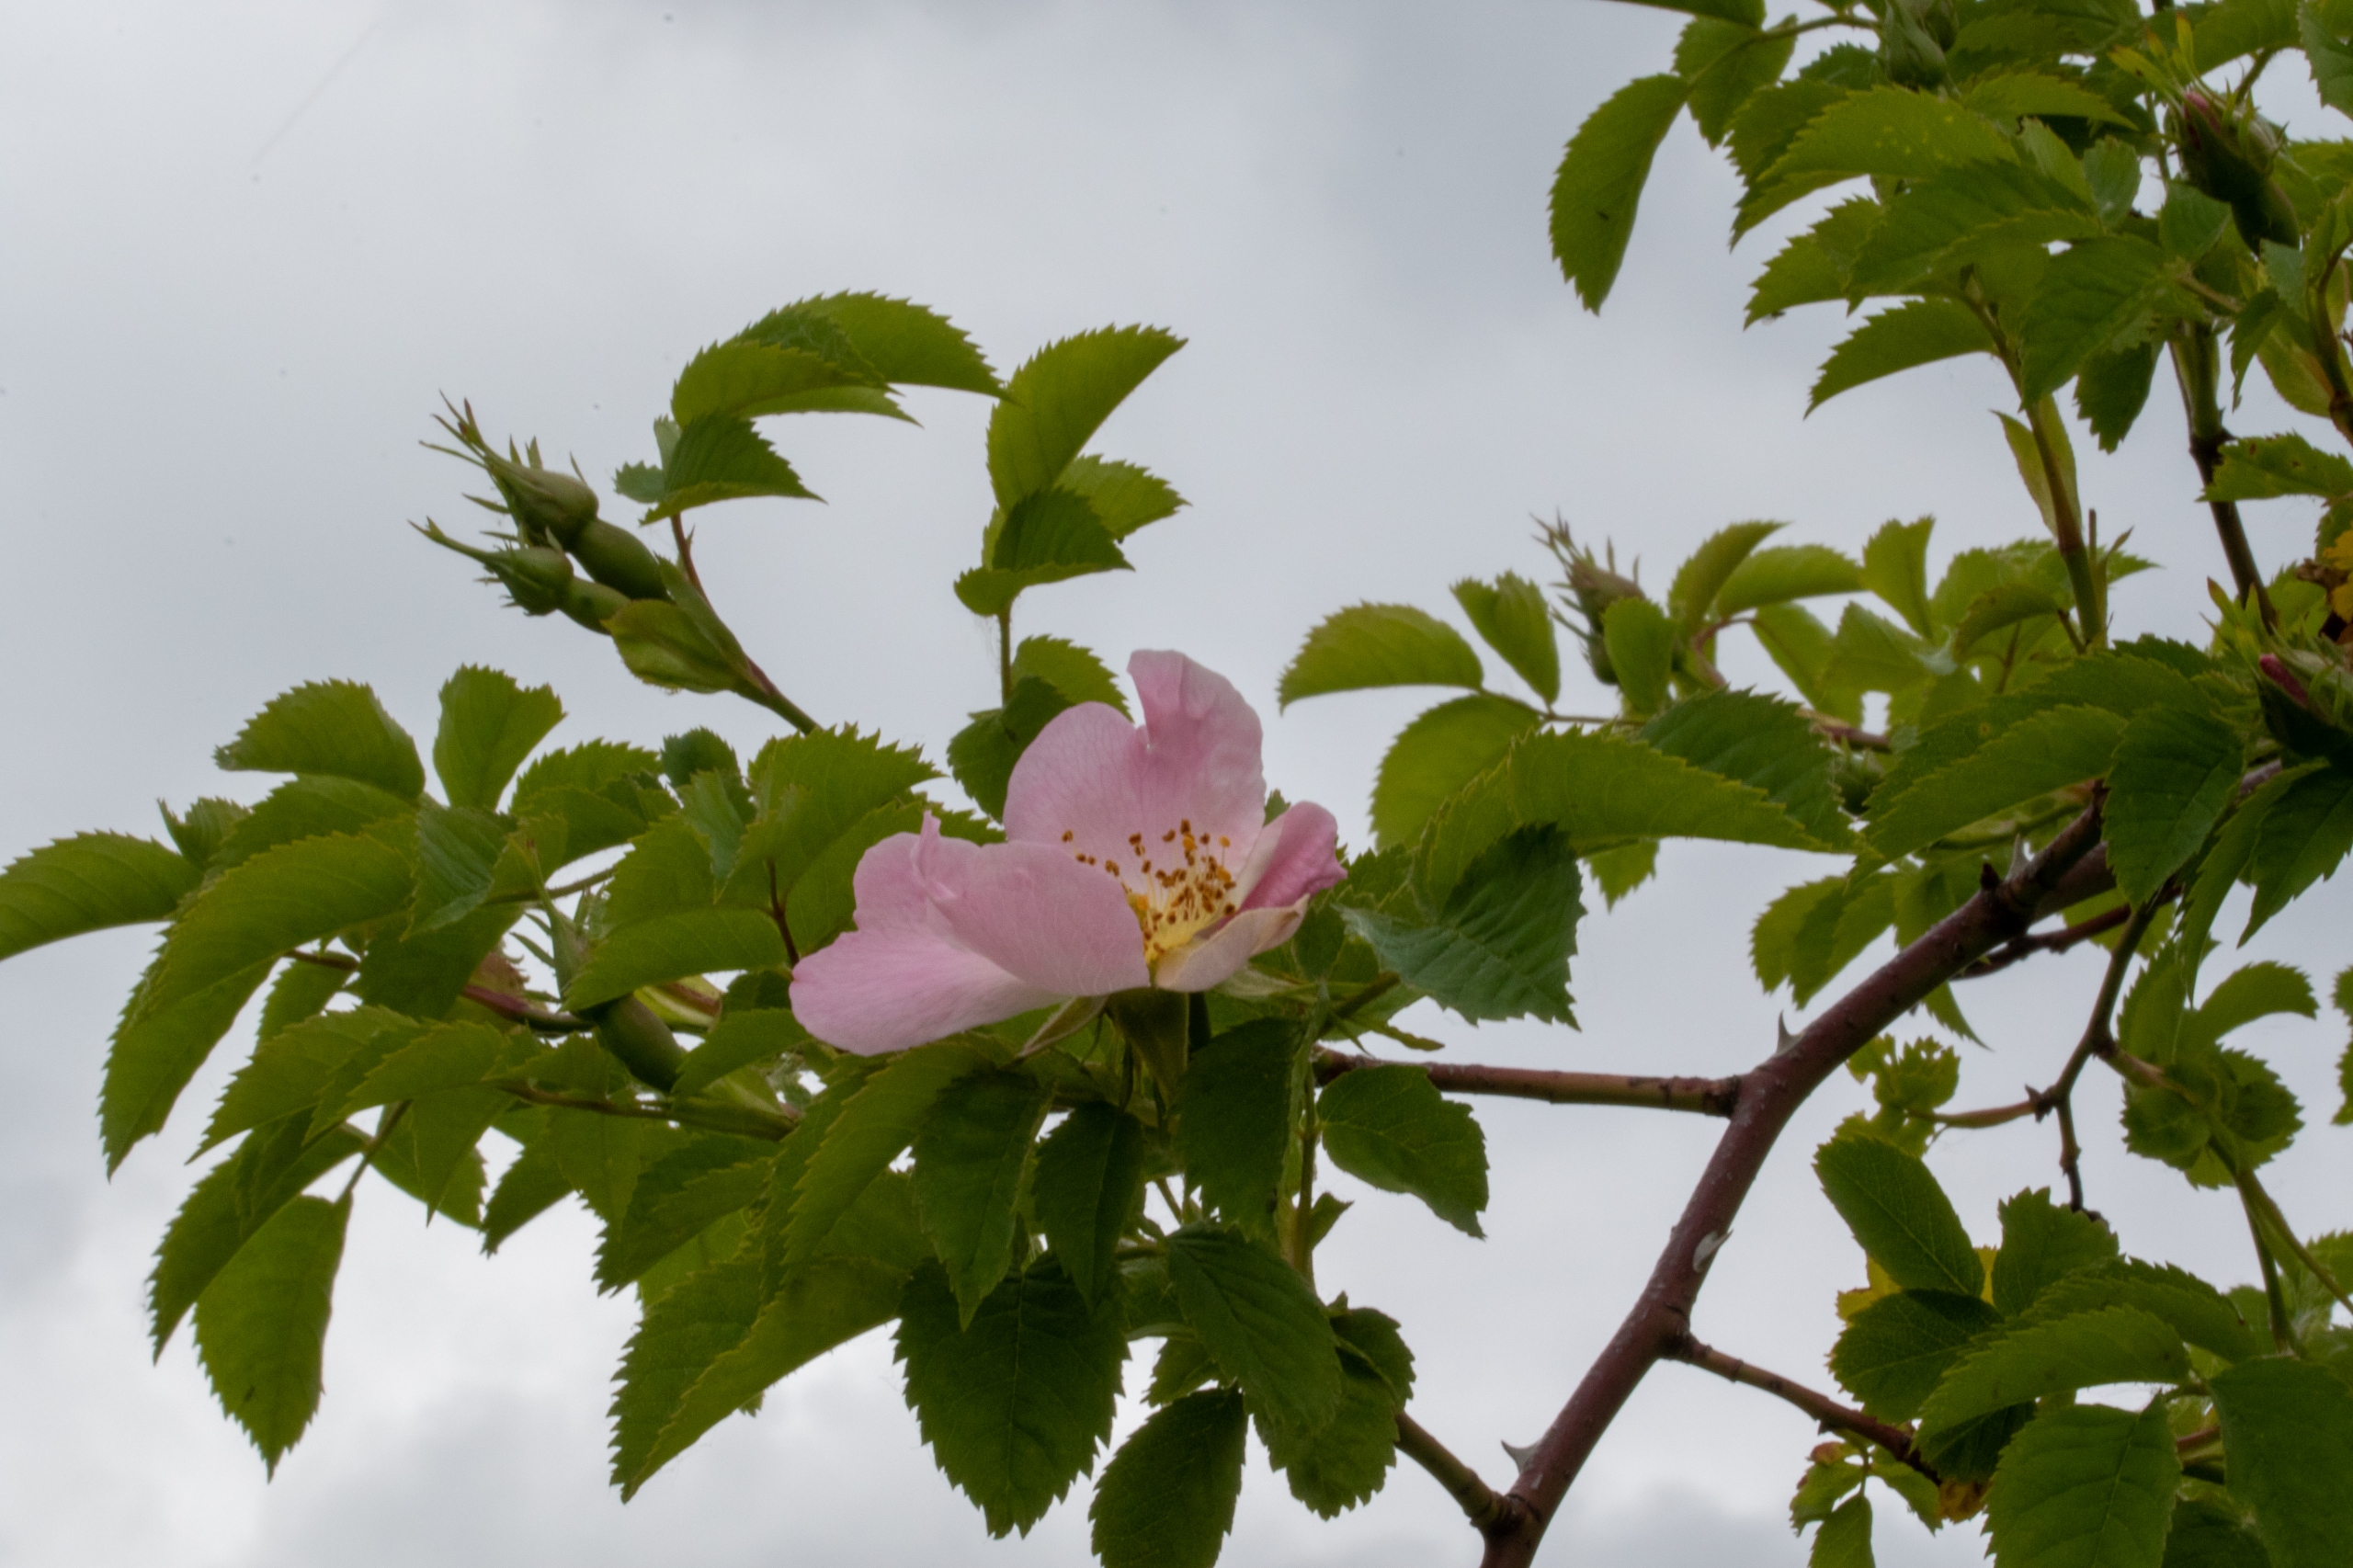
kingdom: Plantae
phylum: Tracheophyta
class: Magnoliopsida
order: Rosales
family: Rosaceae
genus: Rosa
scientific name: Rosa canina
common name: Glat hunde-rose
